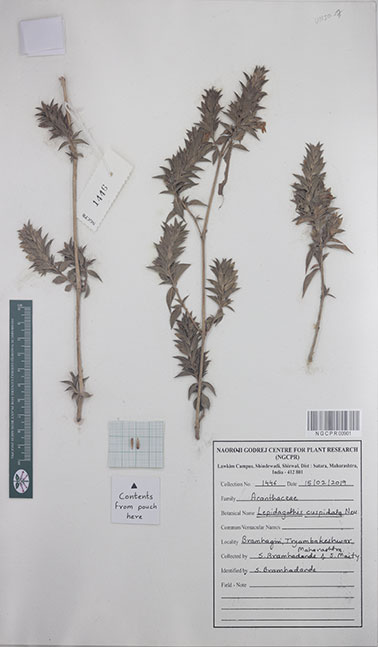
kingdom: Plantae
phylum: Tracheophyta
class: Magnoliopsida
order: Lamiales
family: Acanthaceae
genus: Lepidagathis
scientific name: Lepidagathis cuspidata
